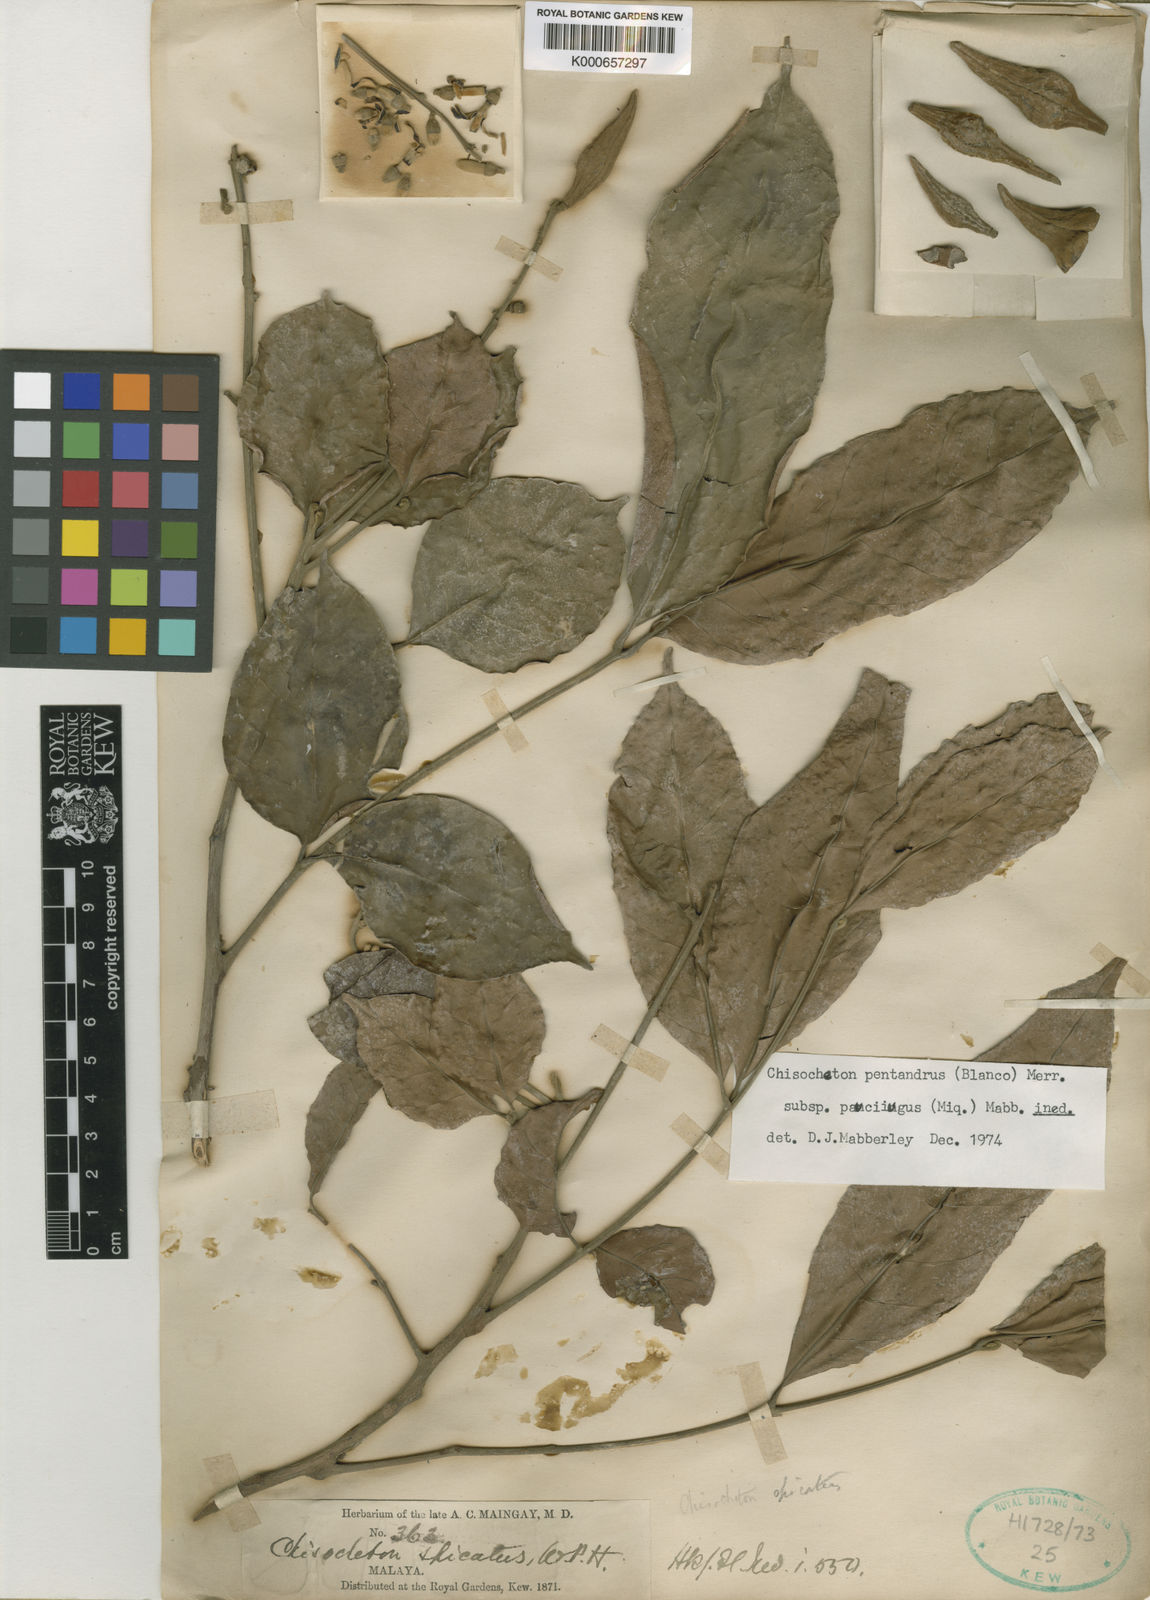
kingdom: Plantae
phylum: Tracheophyta
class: Magnoliopsida
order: Sapindales
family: Meliaceae
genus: Chisocheton
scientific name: Chisocheton pentandrus
